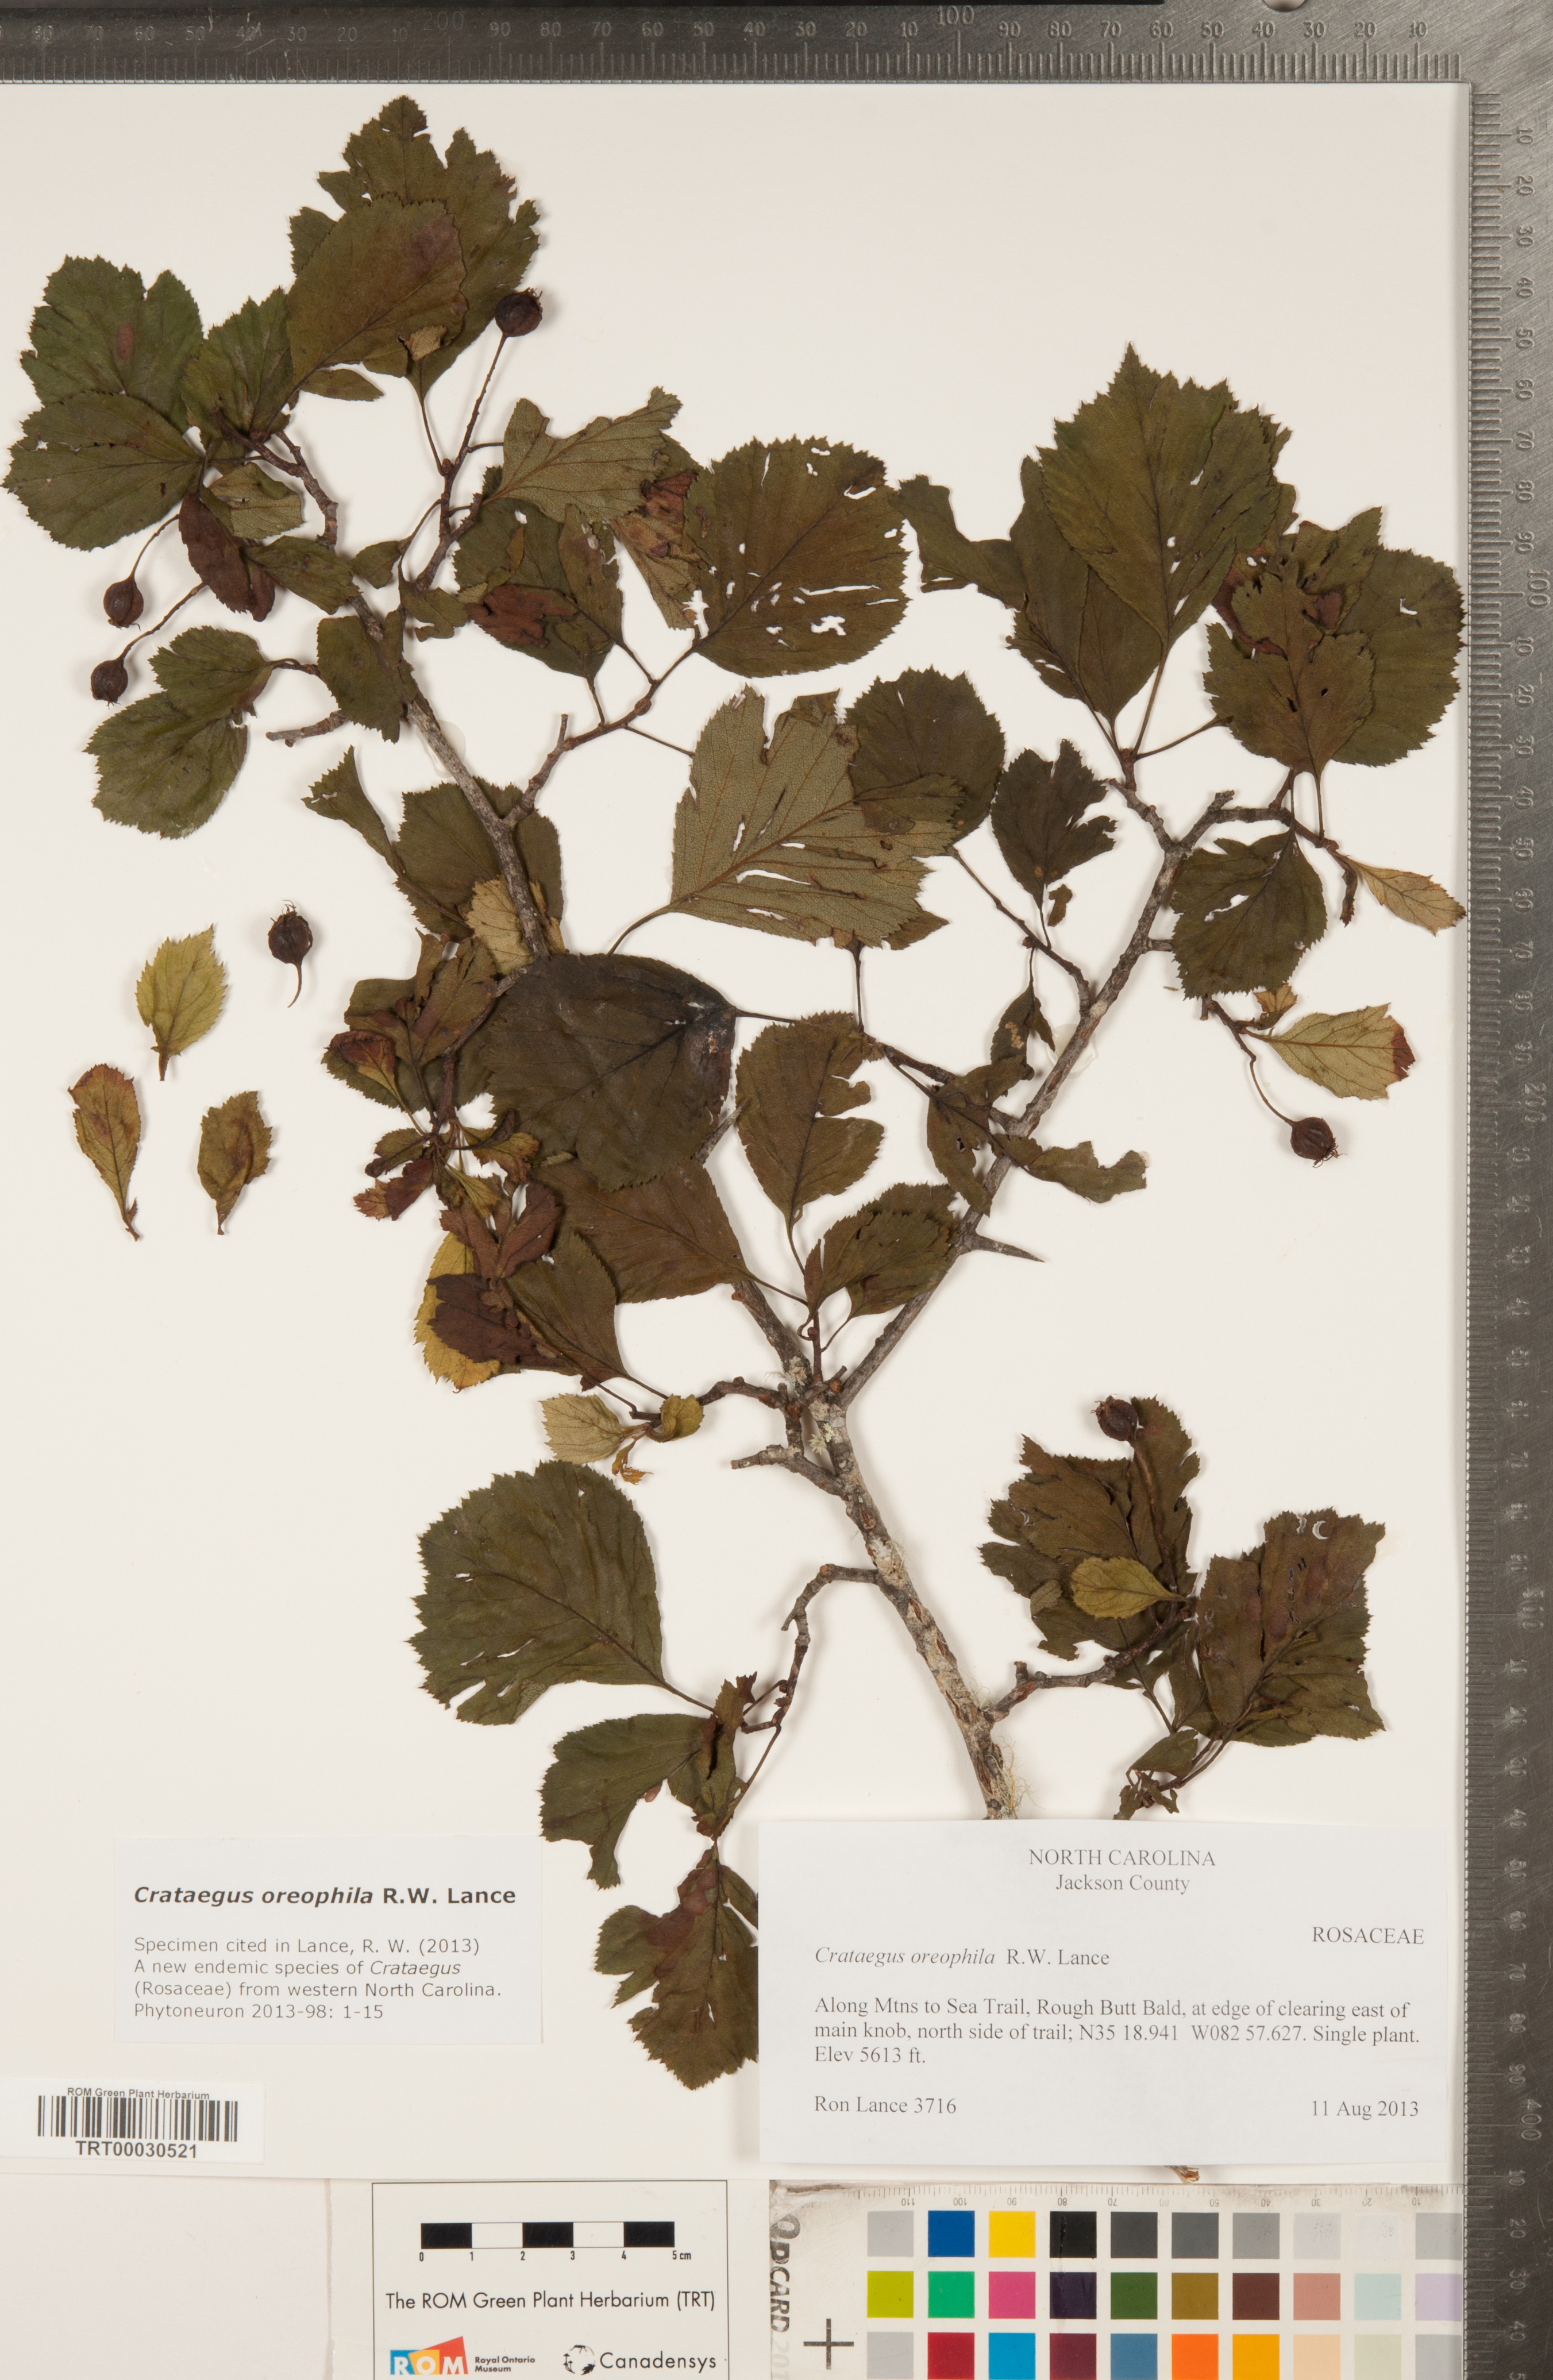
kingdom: Plantae
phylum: Tracheophyta
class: Magnoliopsida
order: Rosales
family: Rosaceae
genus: Crataegus
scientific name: Crataegus oreophila
